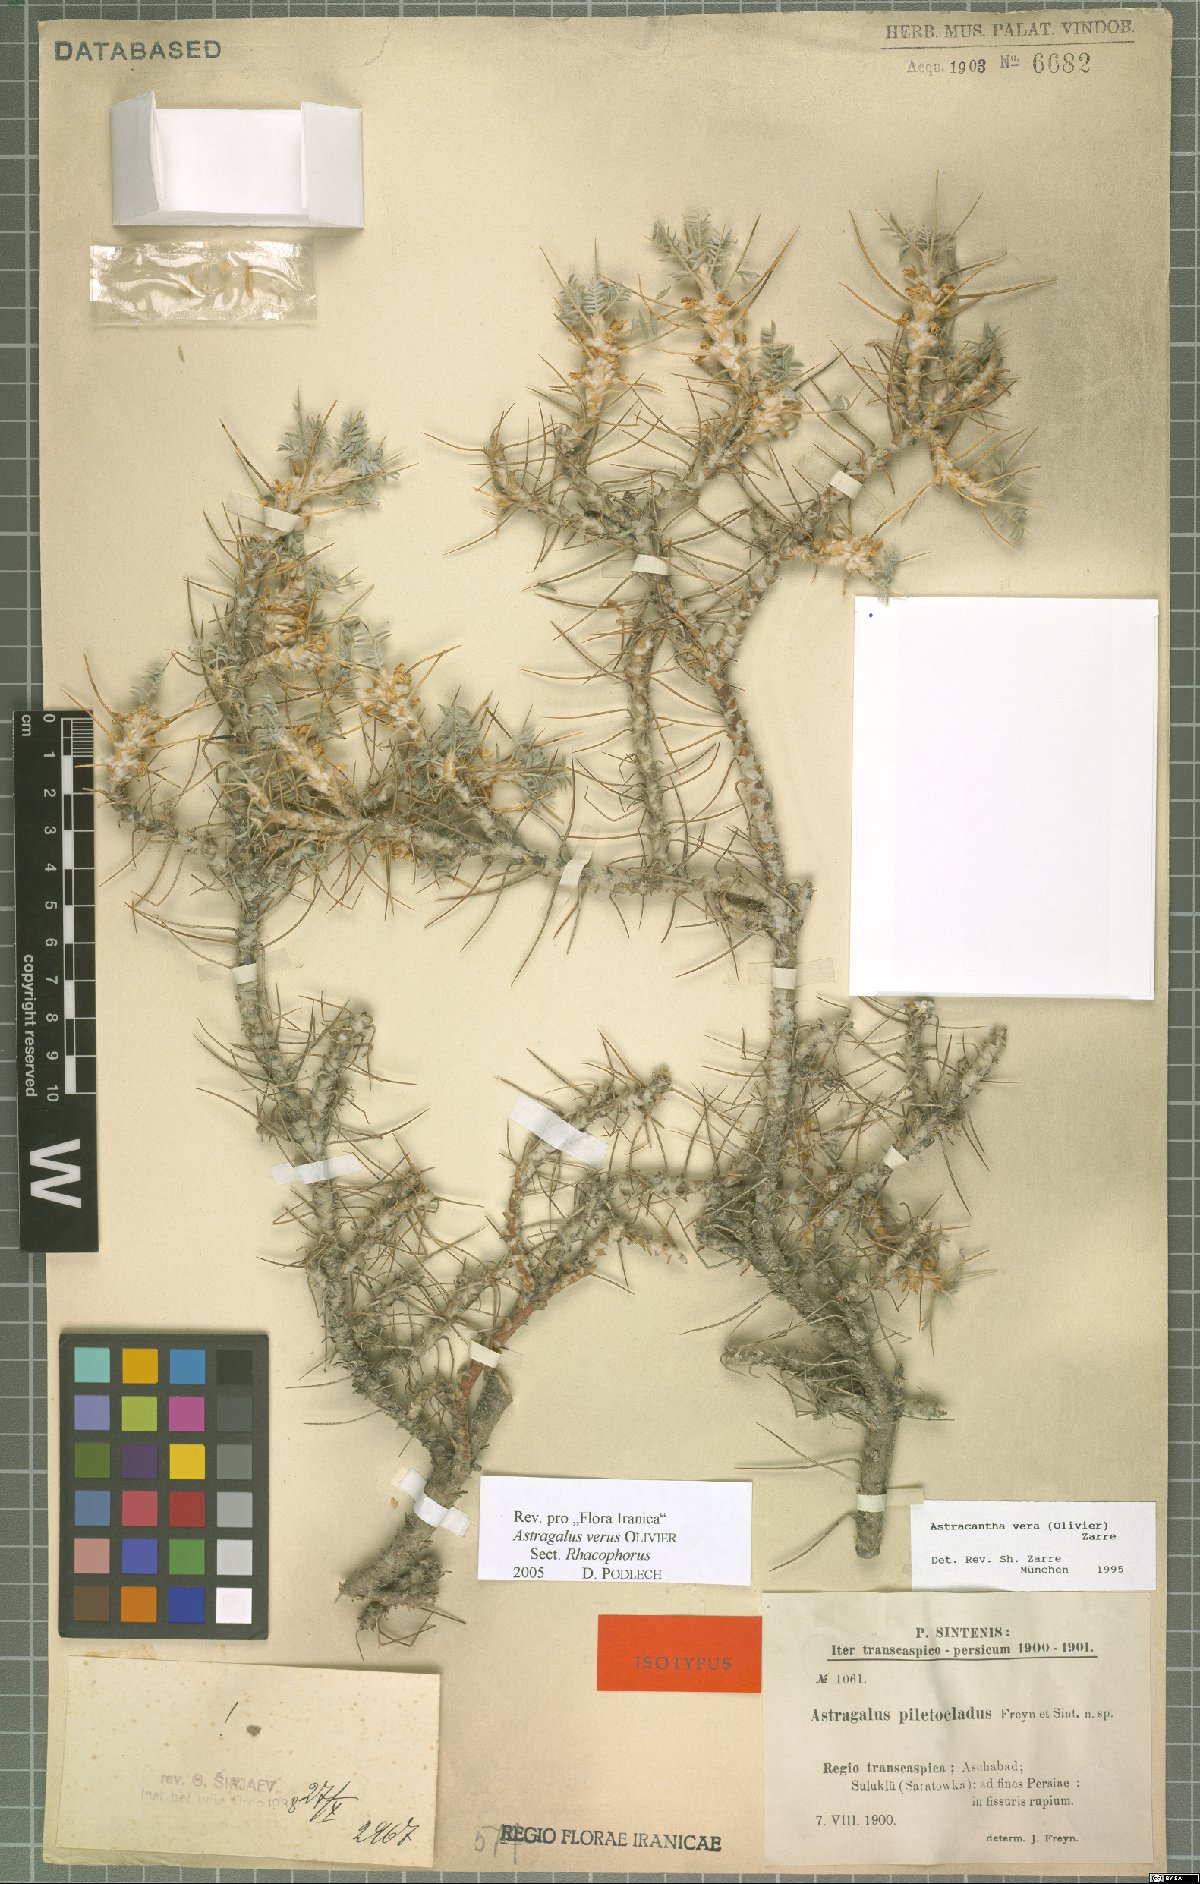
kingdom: Plantae
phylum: Tracheophyta
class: Magnoliopsida
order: Fabales
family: Fabaceae
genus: Astragalus
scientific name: Astragalus verus
